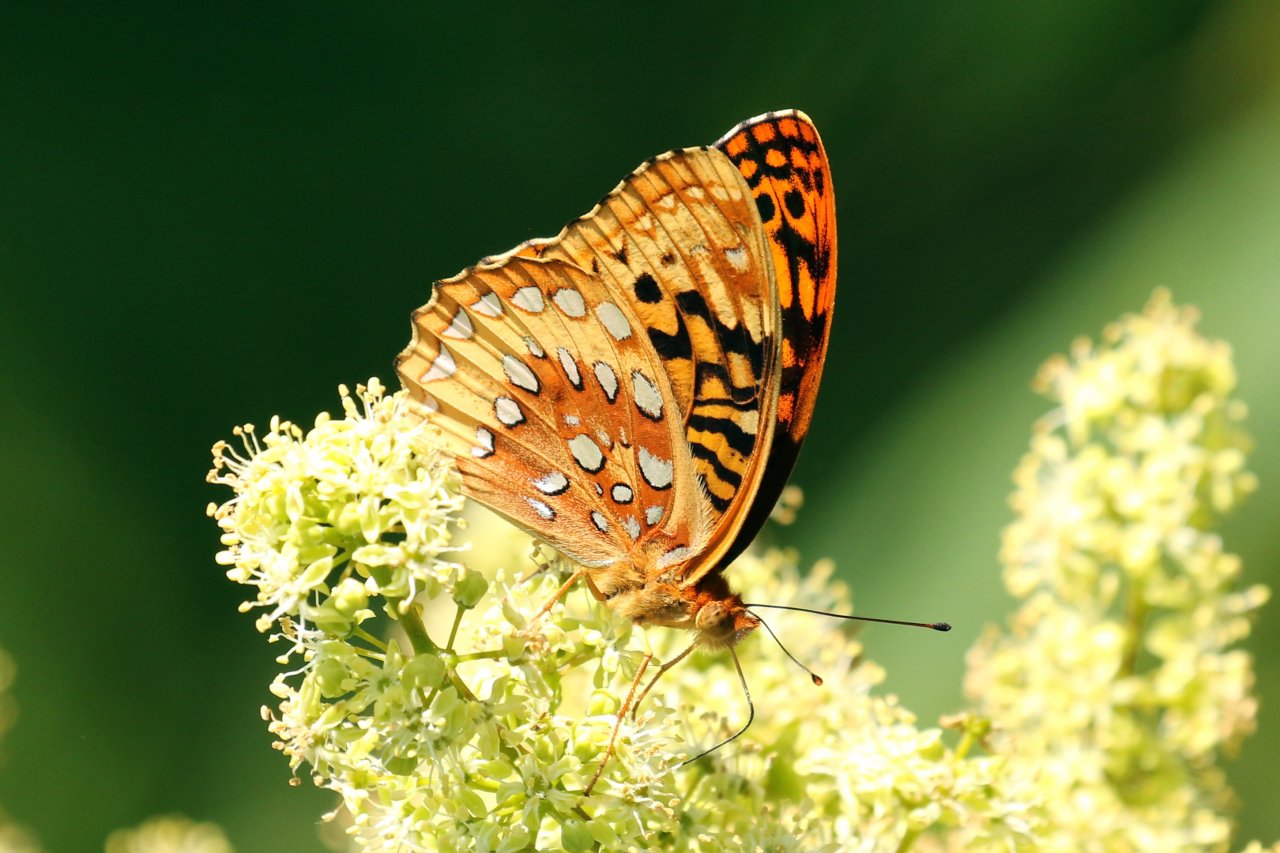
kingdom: Animalia
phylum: Arthropoda
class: Insecta
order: Lepidoptera
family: Nymphalidae
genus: Speyeria
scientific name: Speyeria cybele
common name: Great Spangled Fritillary
